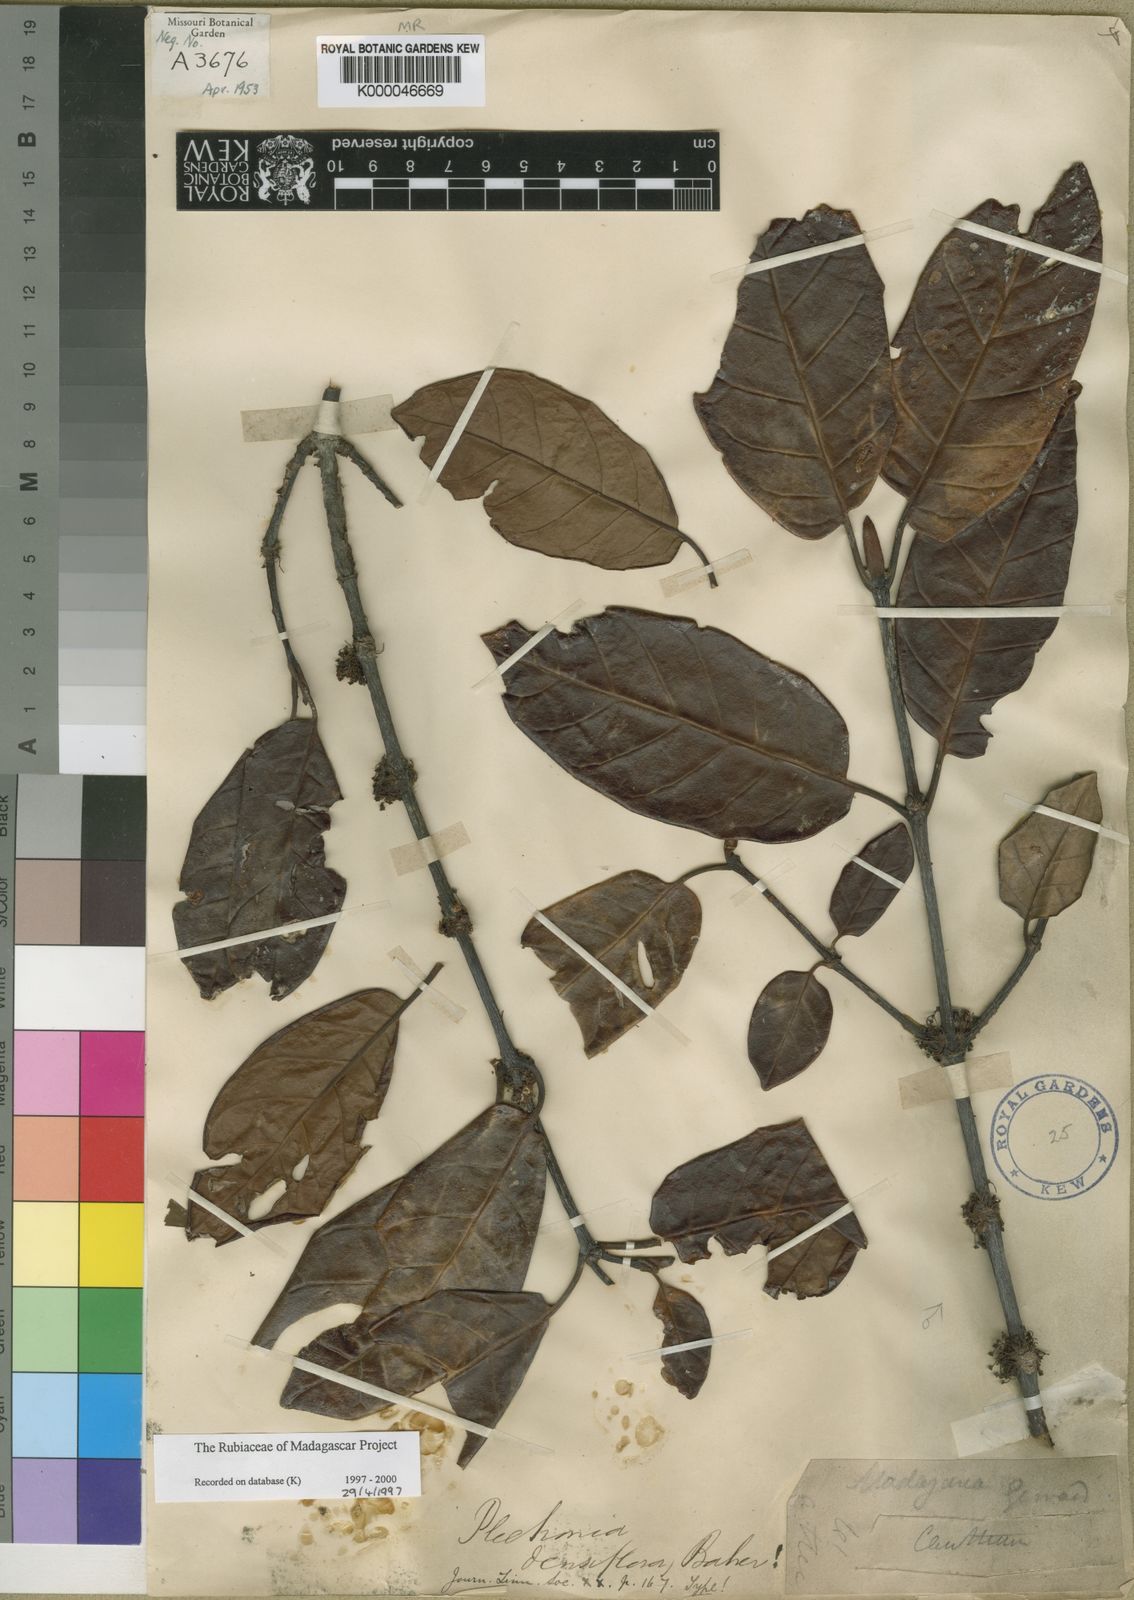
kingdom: Plantae
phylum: Tracheophyta
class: Magnoliopsida
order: Gentianales
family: Rubiaceae
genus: Canthium
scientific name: Canthium
